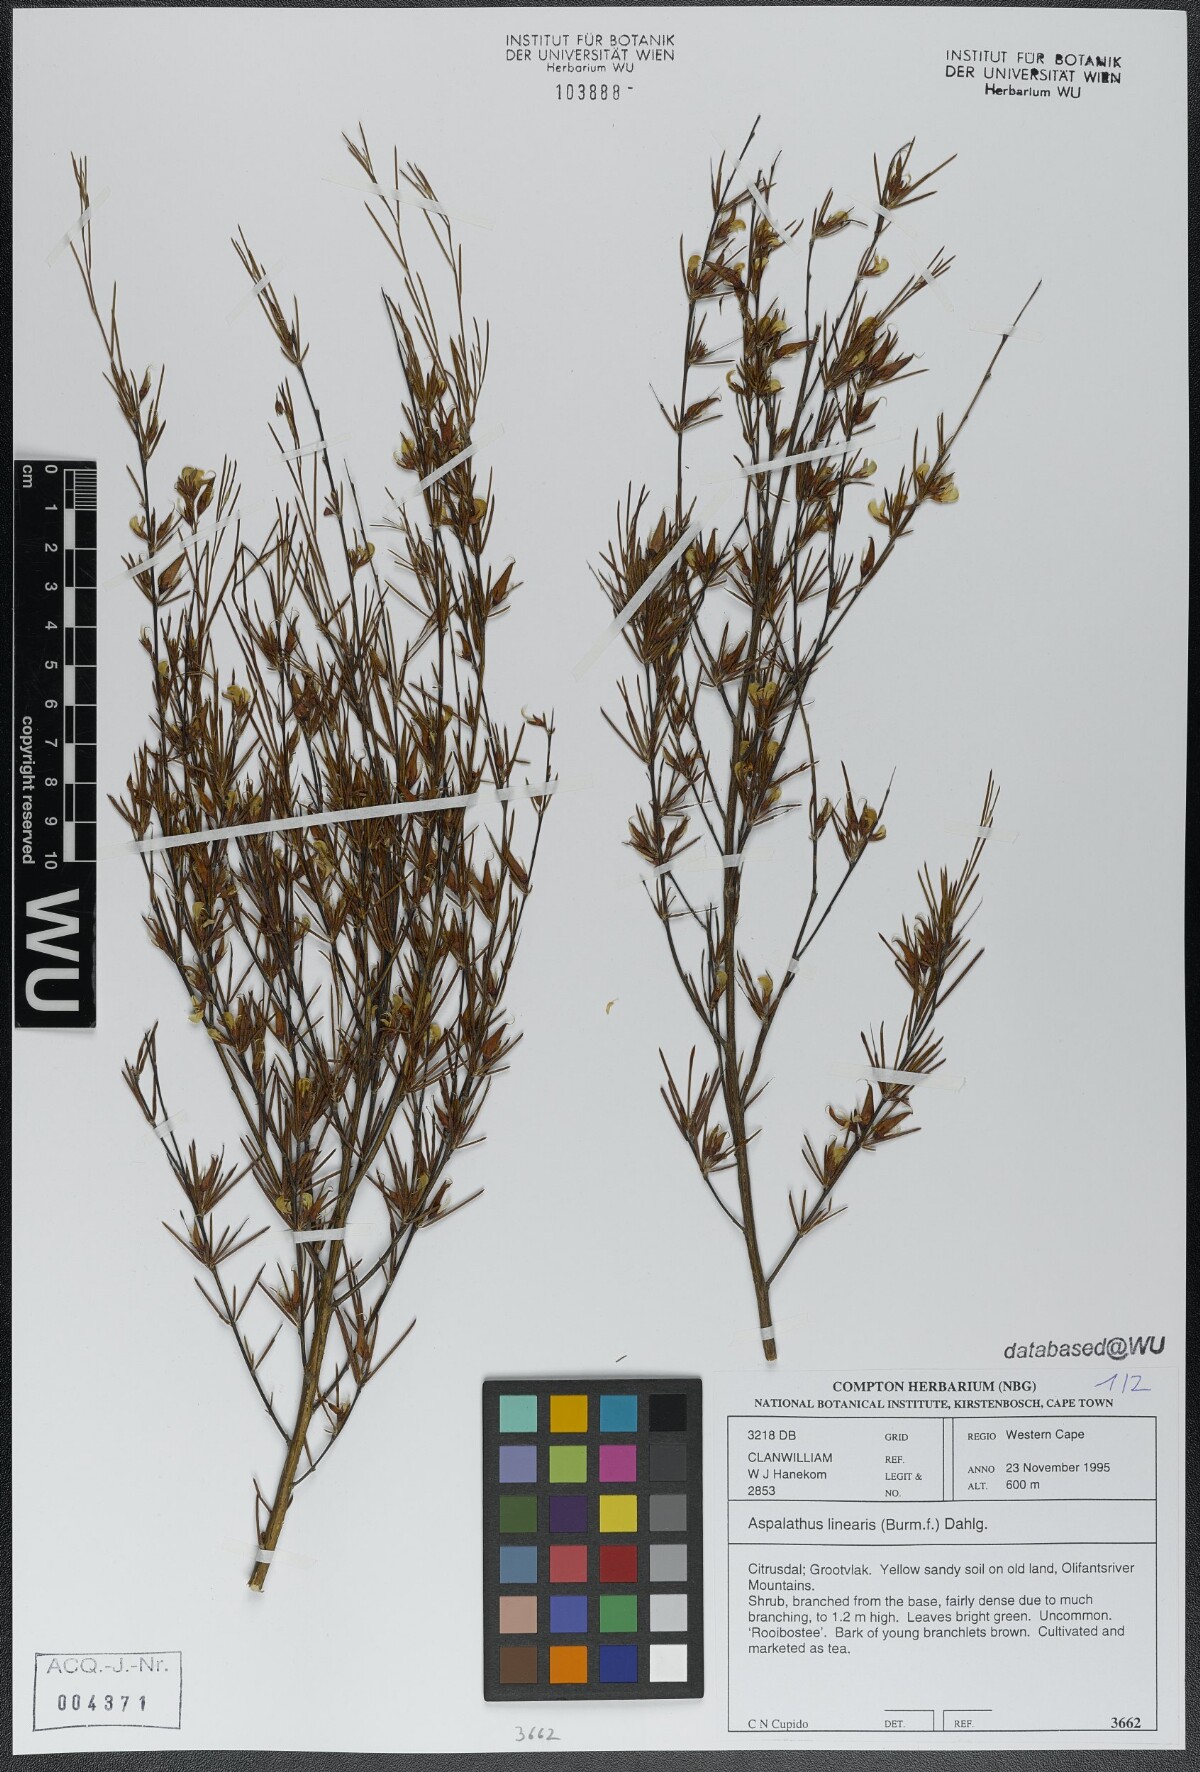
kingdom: Plantae
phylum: Tracheophyta
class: Magnoliopsida
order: Fabales
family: Fabaceae
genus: Aspalathus
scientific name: Aspalathus linearis
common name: Rooibos-tea
